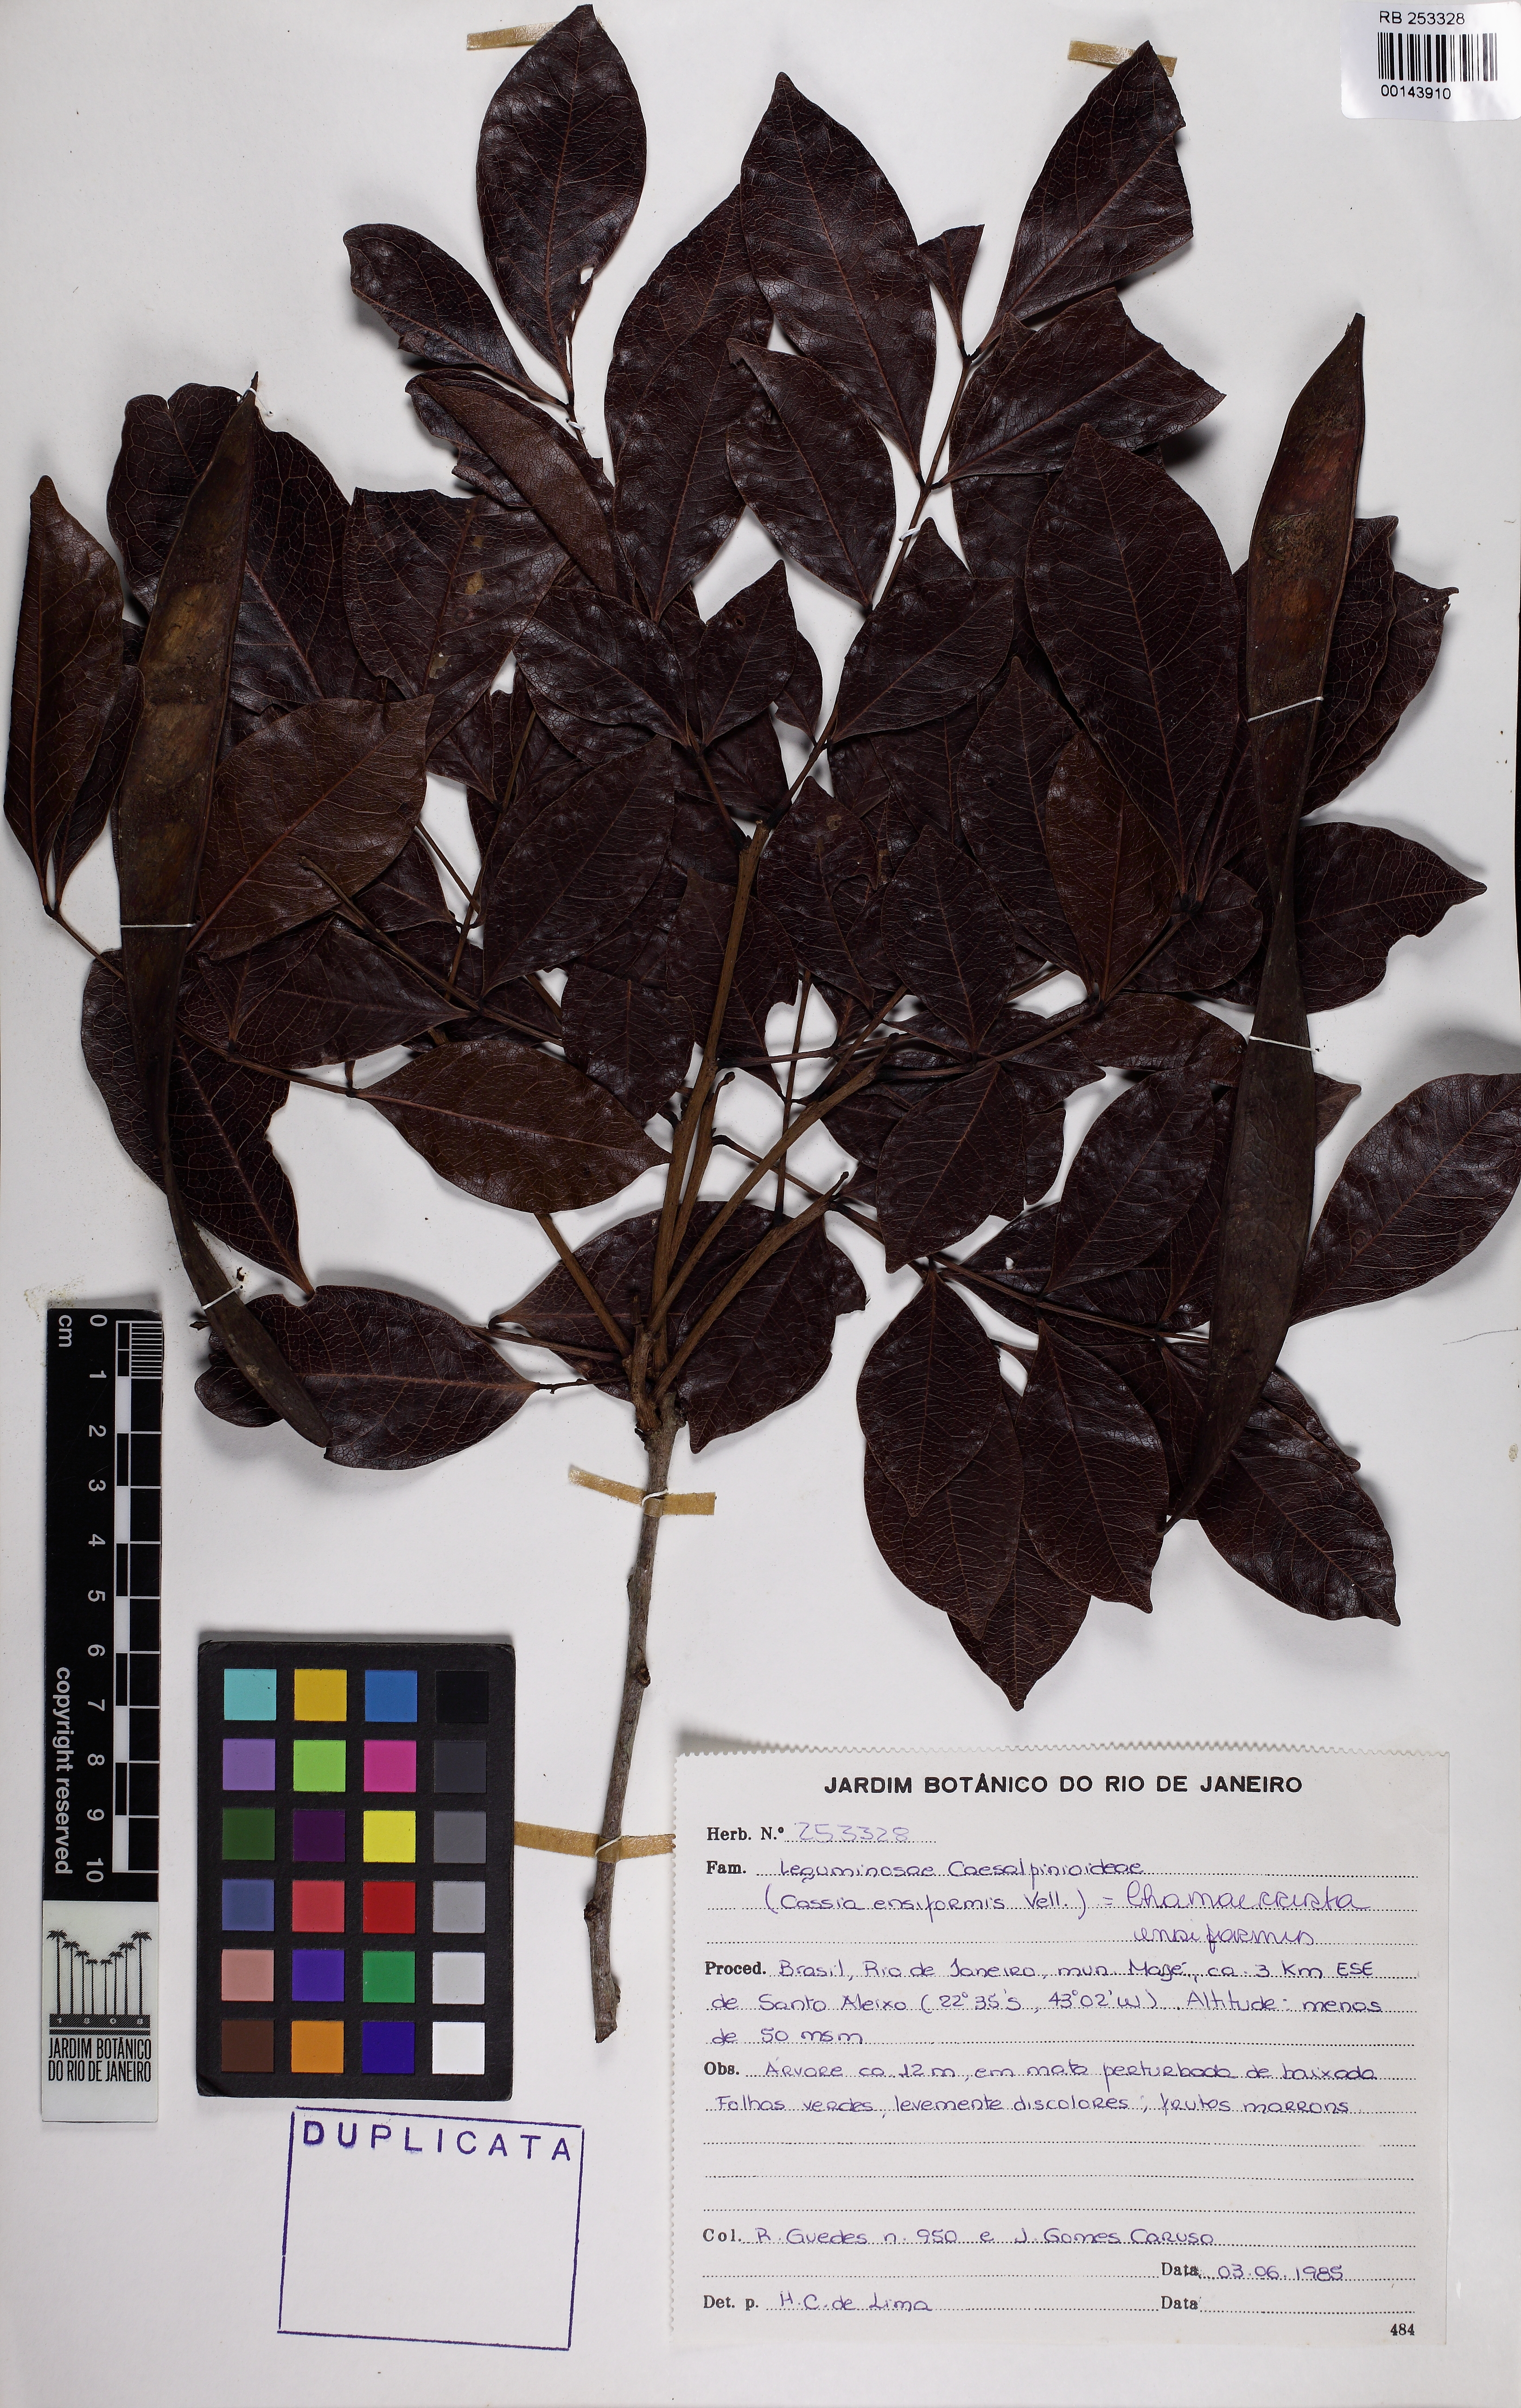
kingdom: Plantae
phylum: Tracheophyta
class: Magnoliopsida
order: Fabales
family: Fabaceae
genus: Chamaecrista
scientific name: Chamaecrista ensiformis
